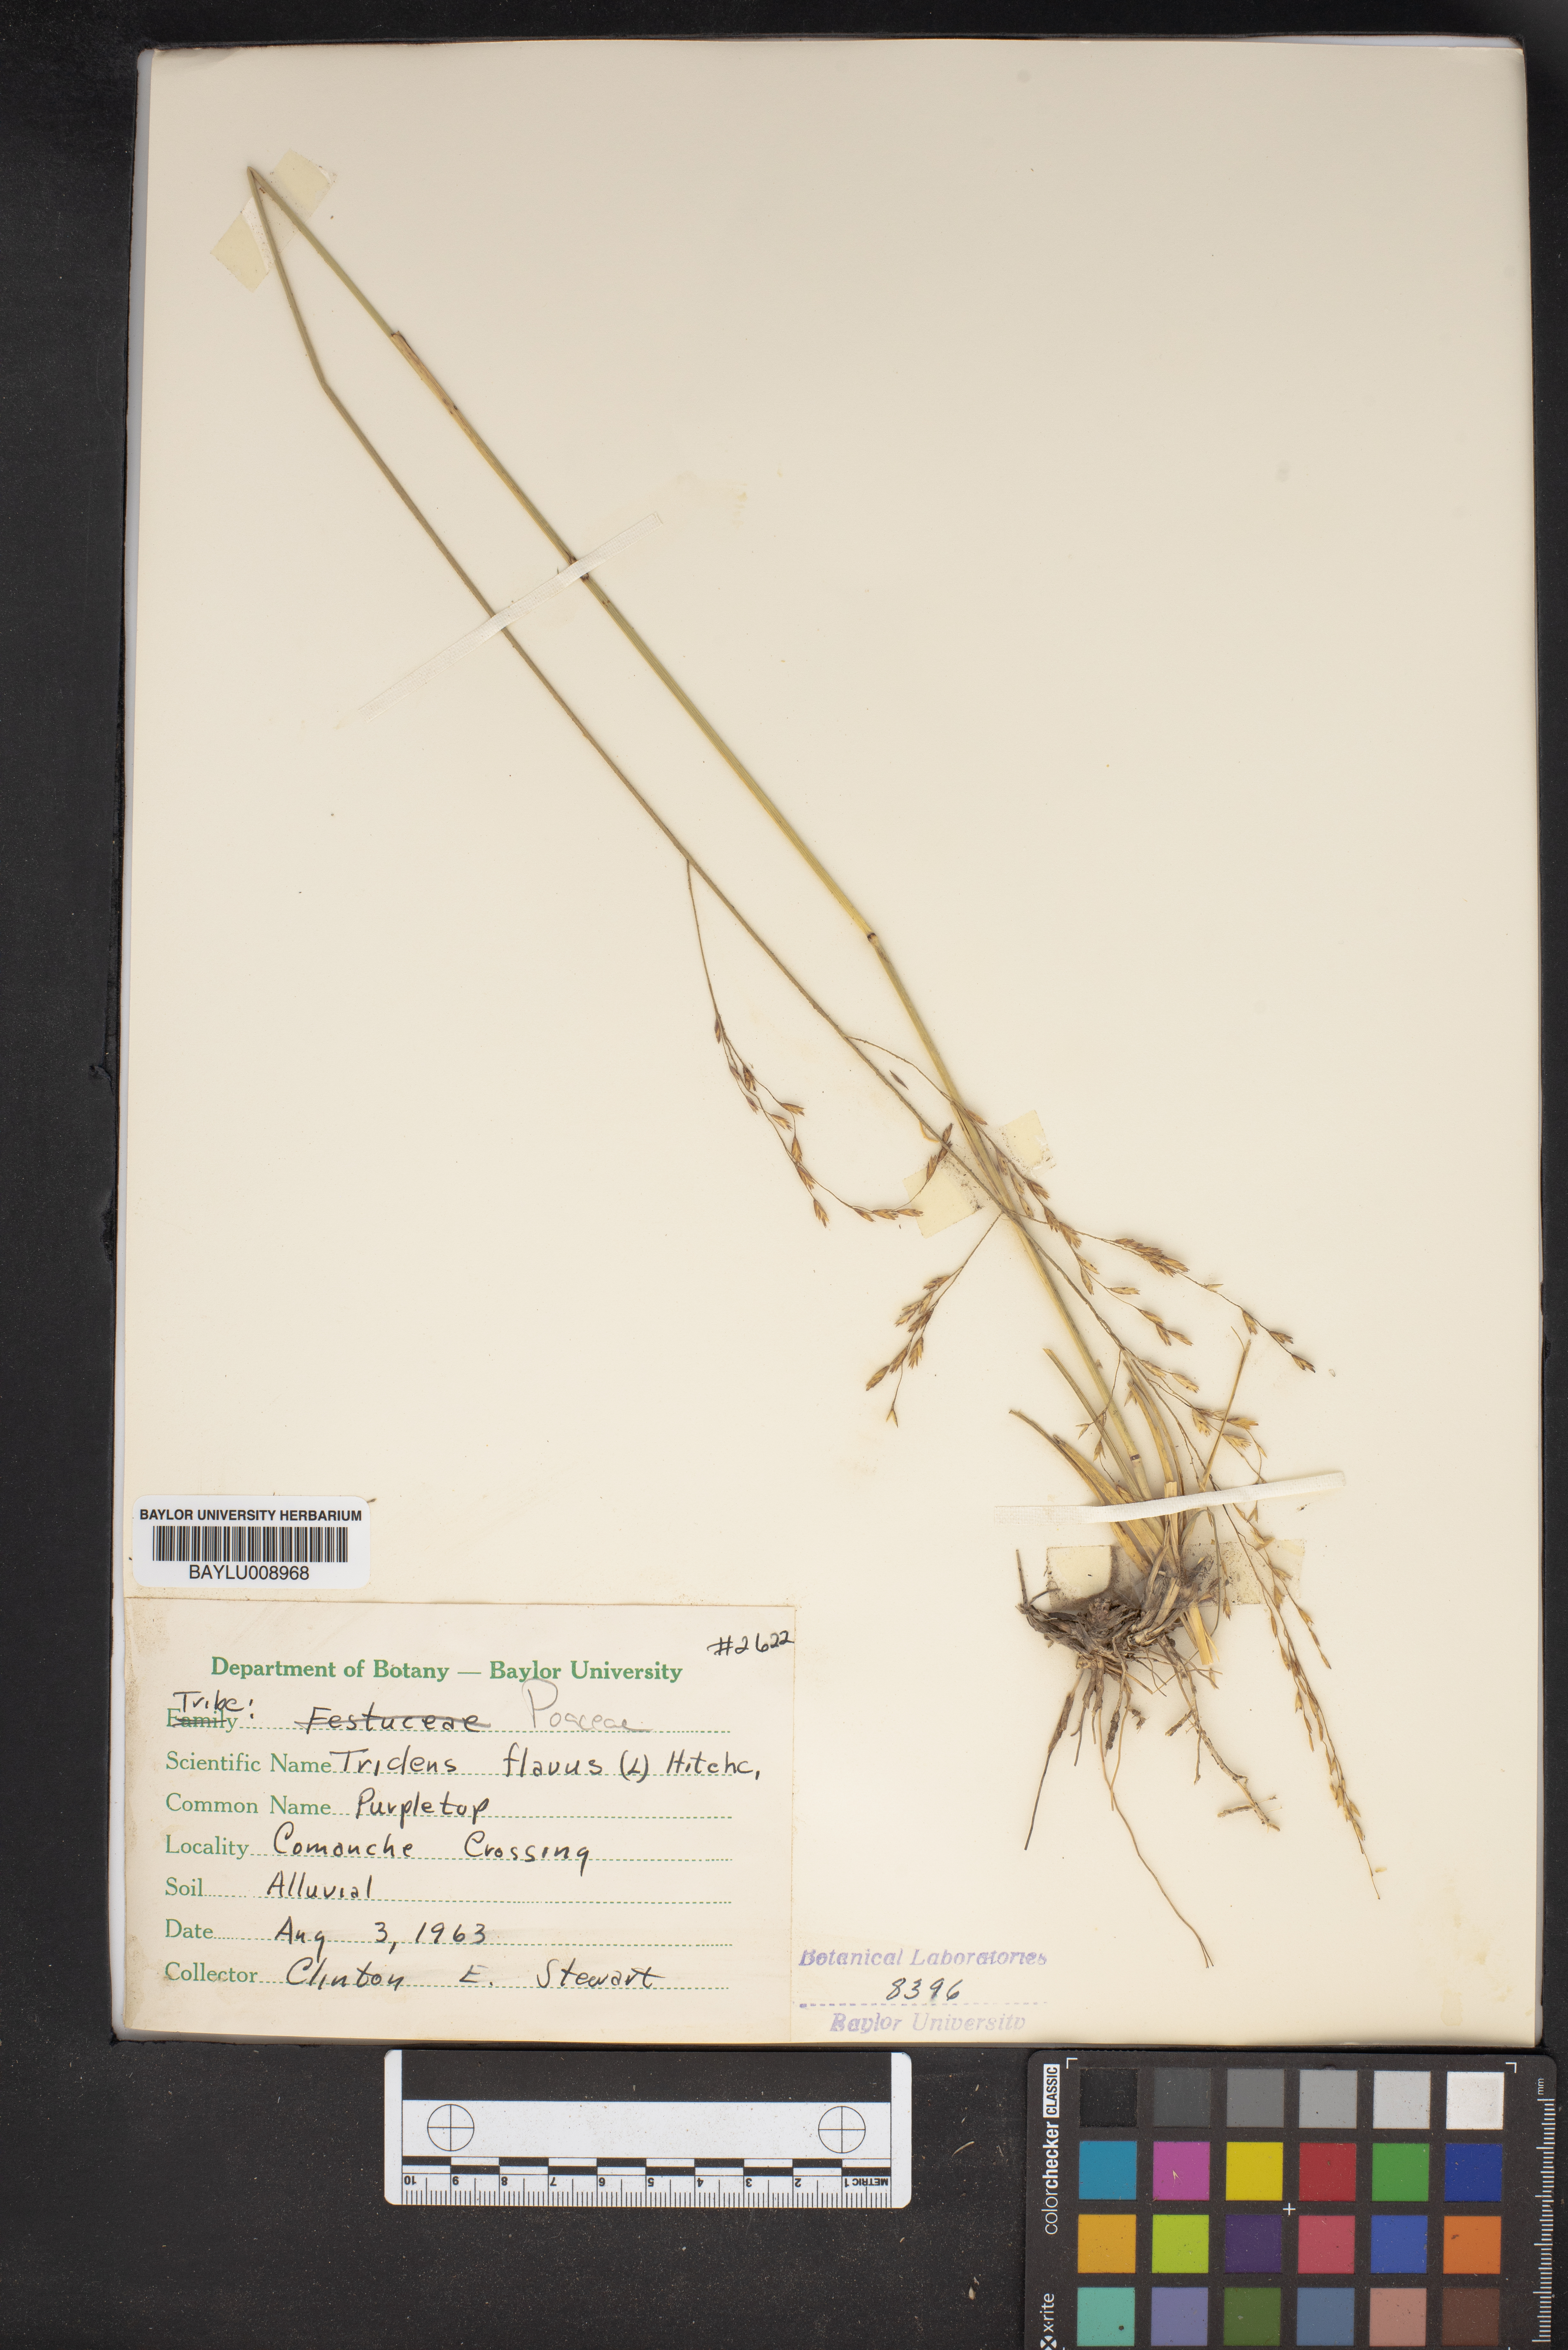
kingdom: Plantae
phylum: Tracheophyta
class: Liliopsida
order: Poales
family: Poaceae
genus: Tridens
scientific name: Tridens flavus
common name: Purpletop
